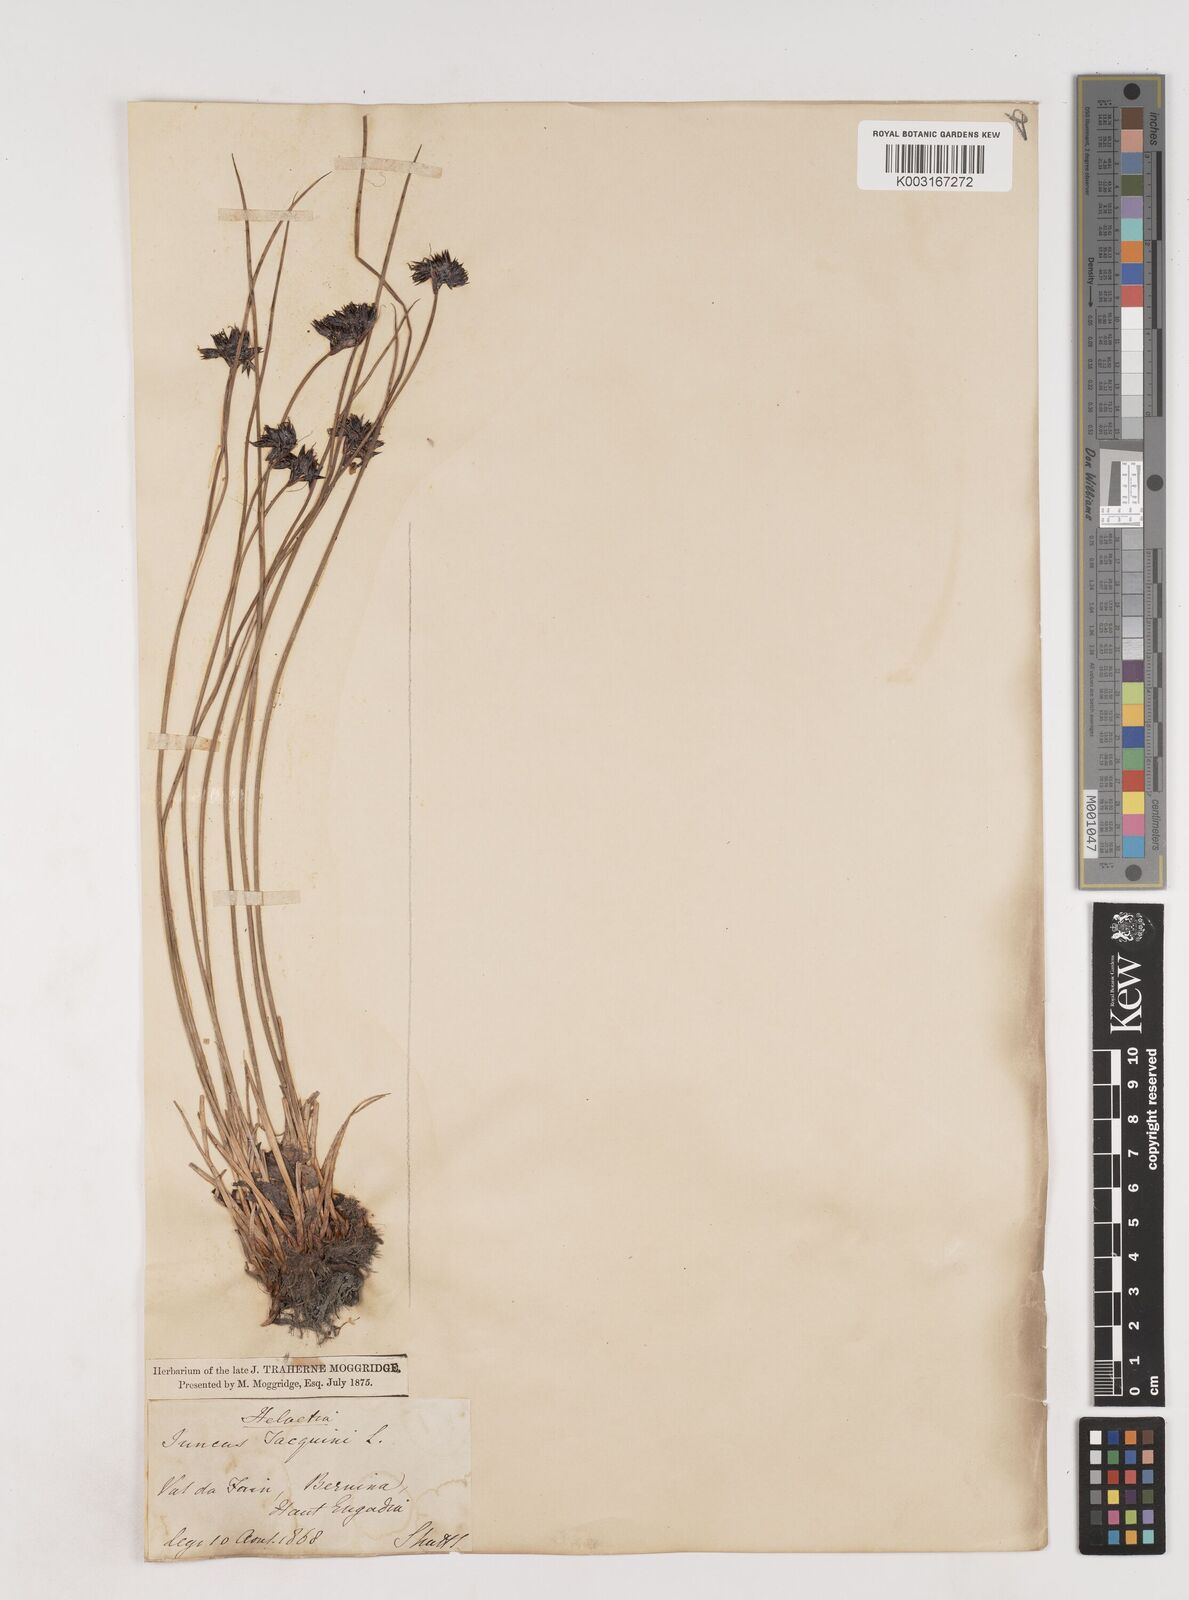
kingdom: Plantae
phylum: Tracheophyta
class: Liliopsida
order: Poales
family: Juncaceae
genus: Juncus
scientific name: Juncus jacquinii
